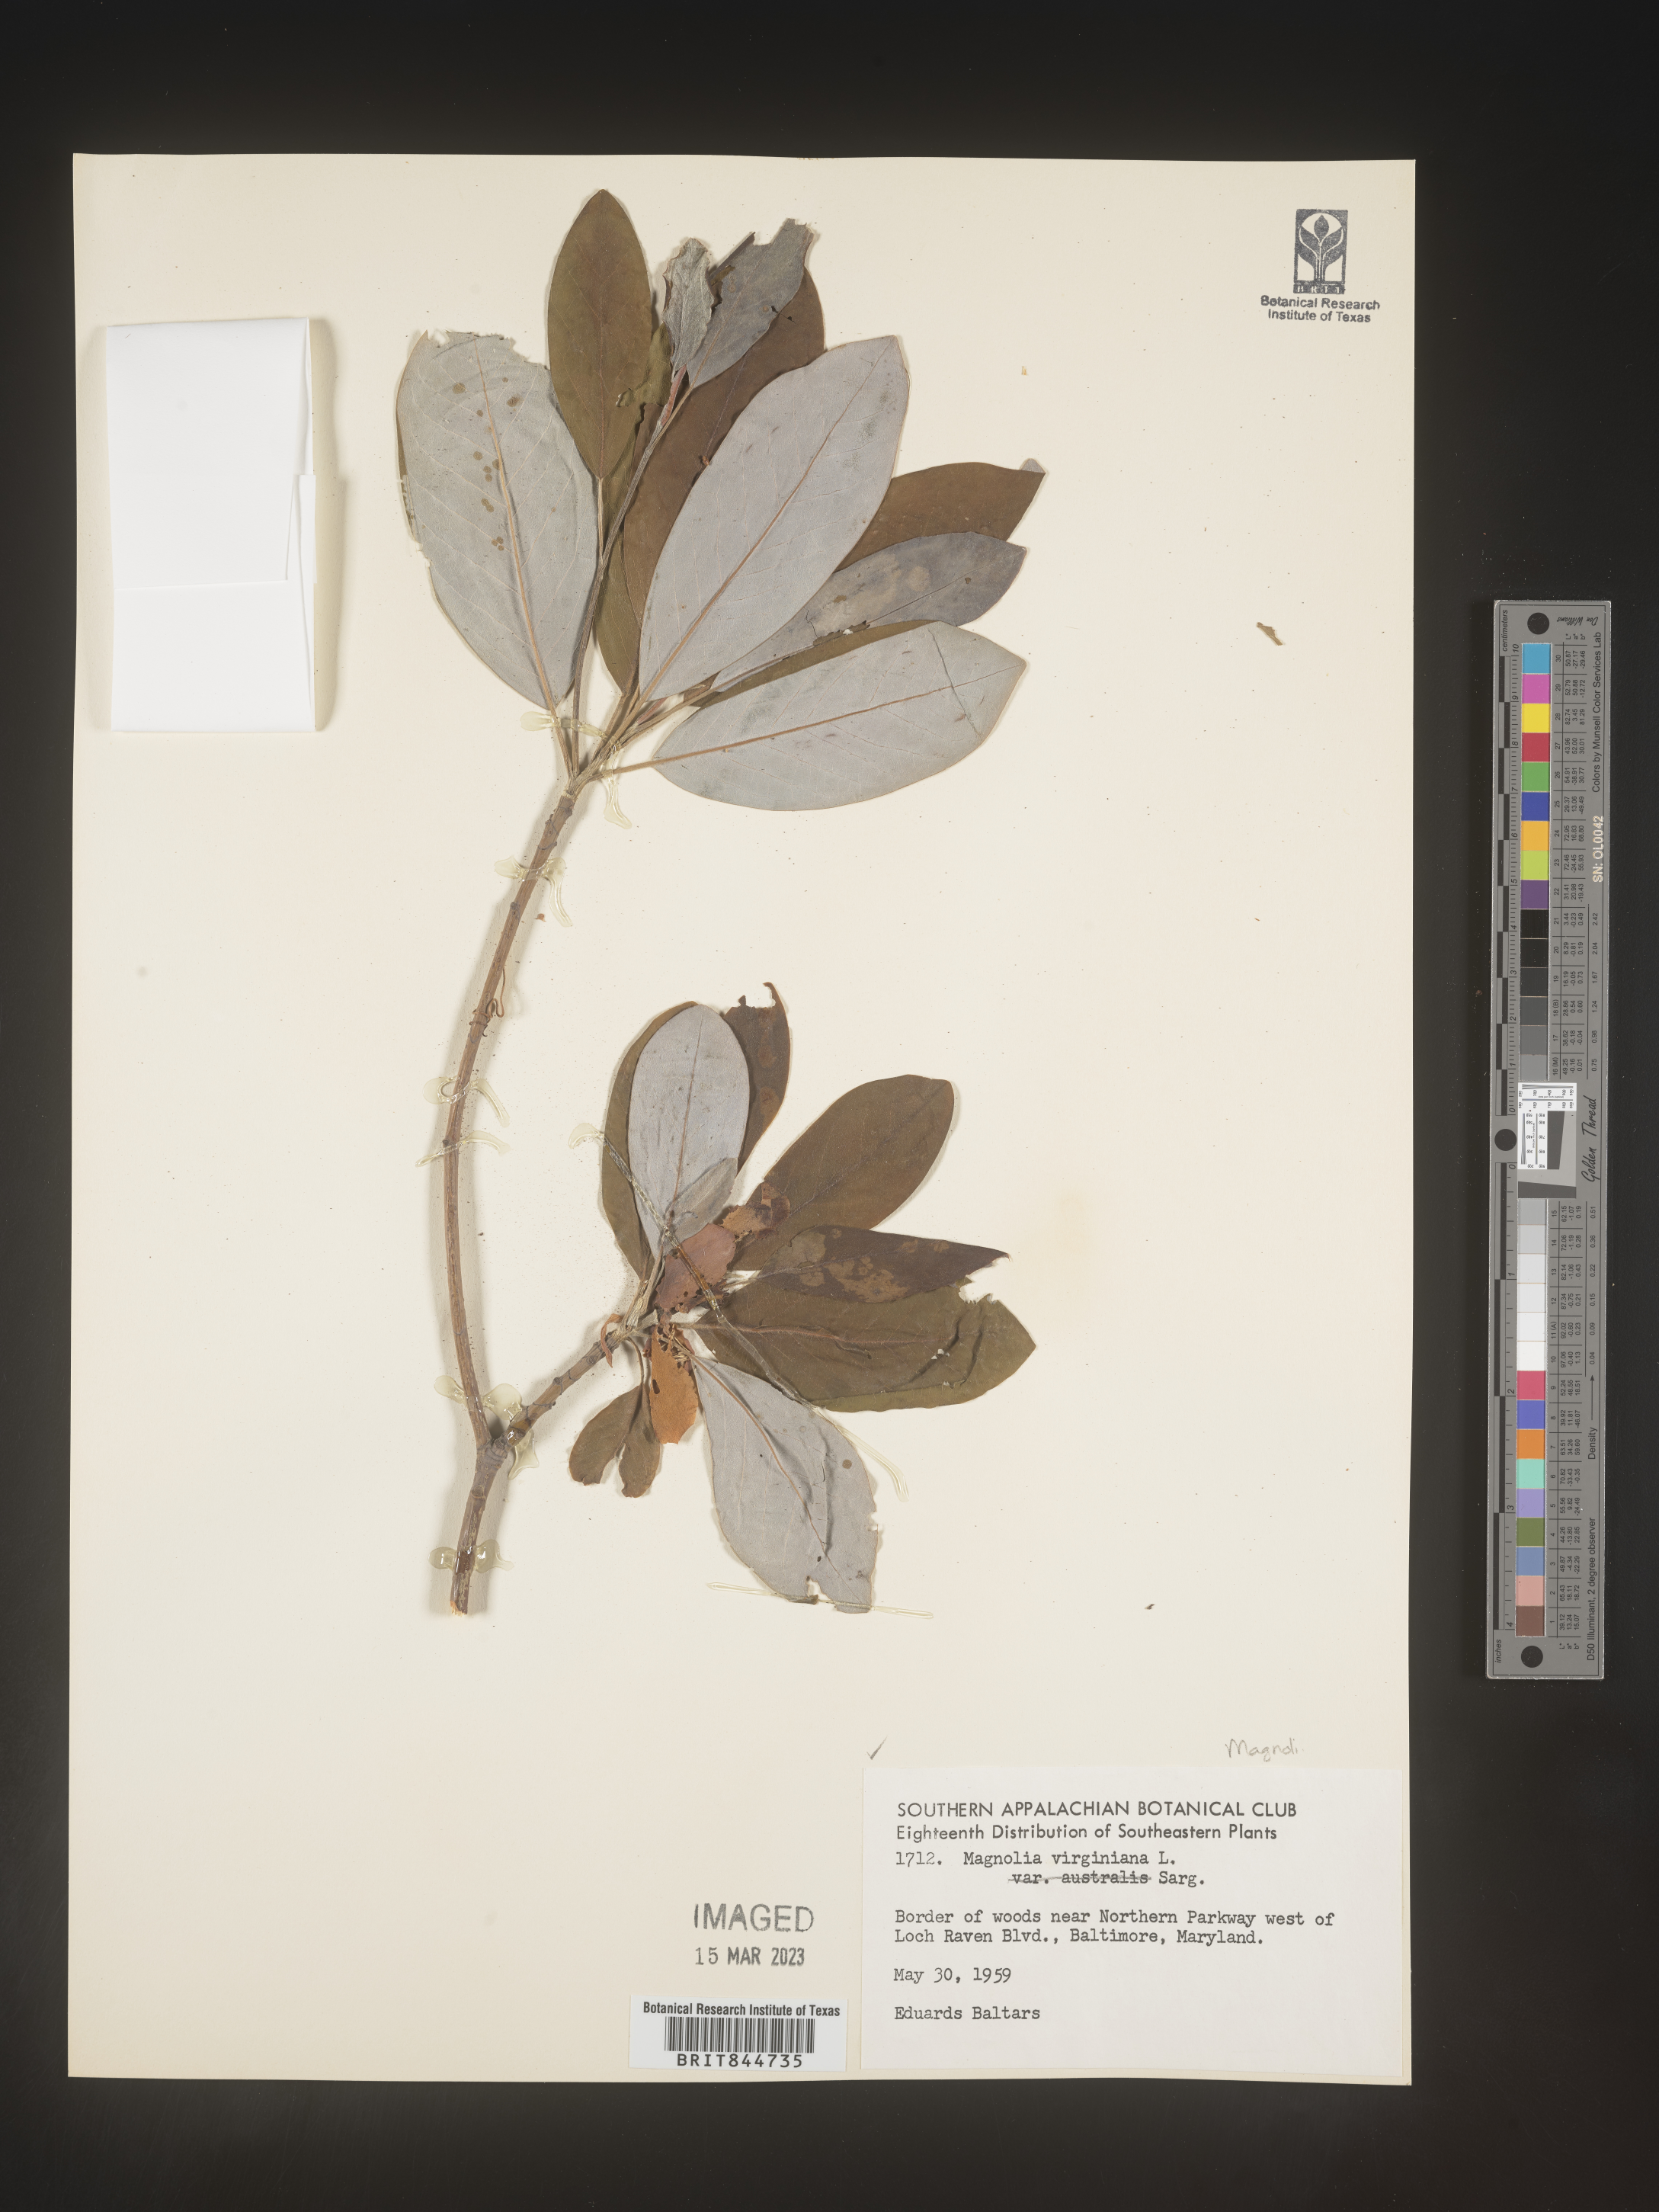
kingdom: Plantae
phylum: Tracheophyta
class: Magnoliopsida
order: Magnoliales
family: Magnoliaceae
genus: Magnolia
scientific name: Magnolia virginiana
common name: Swamp bay
